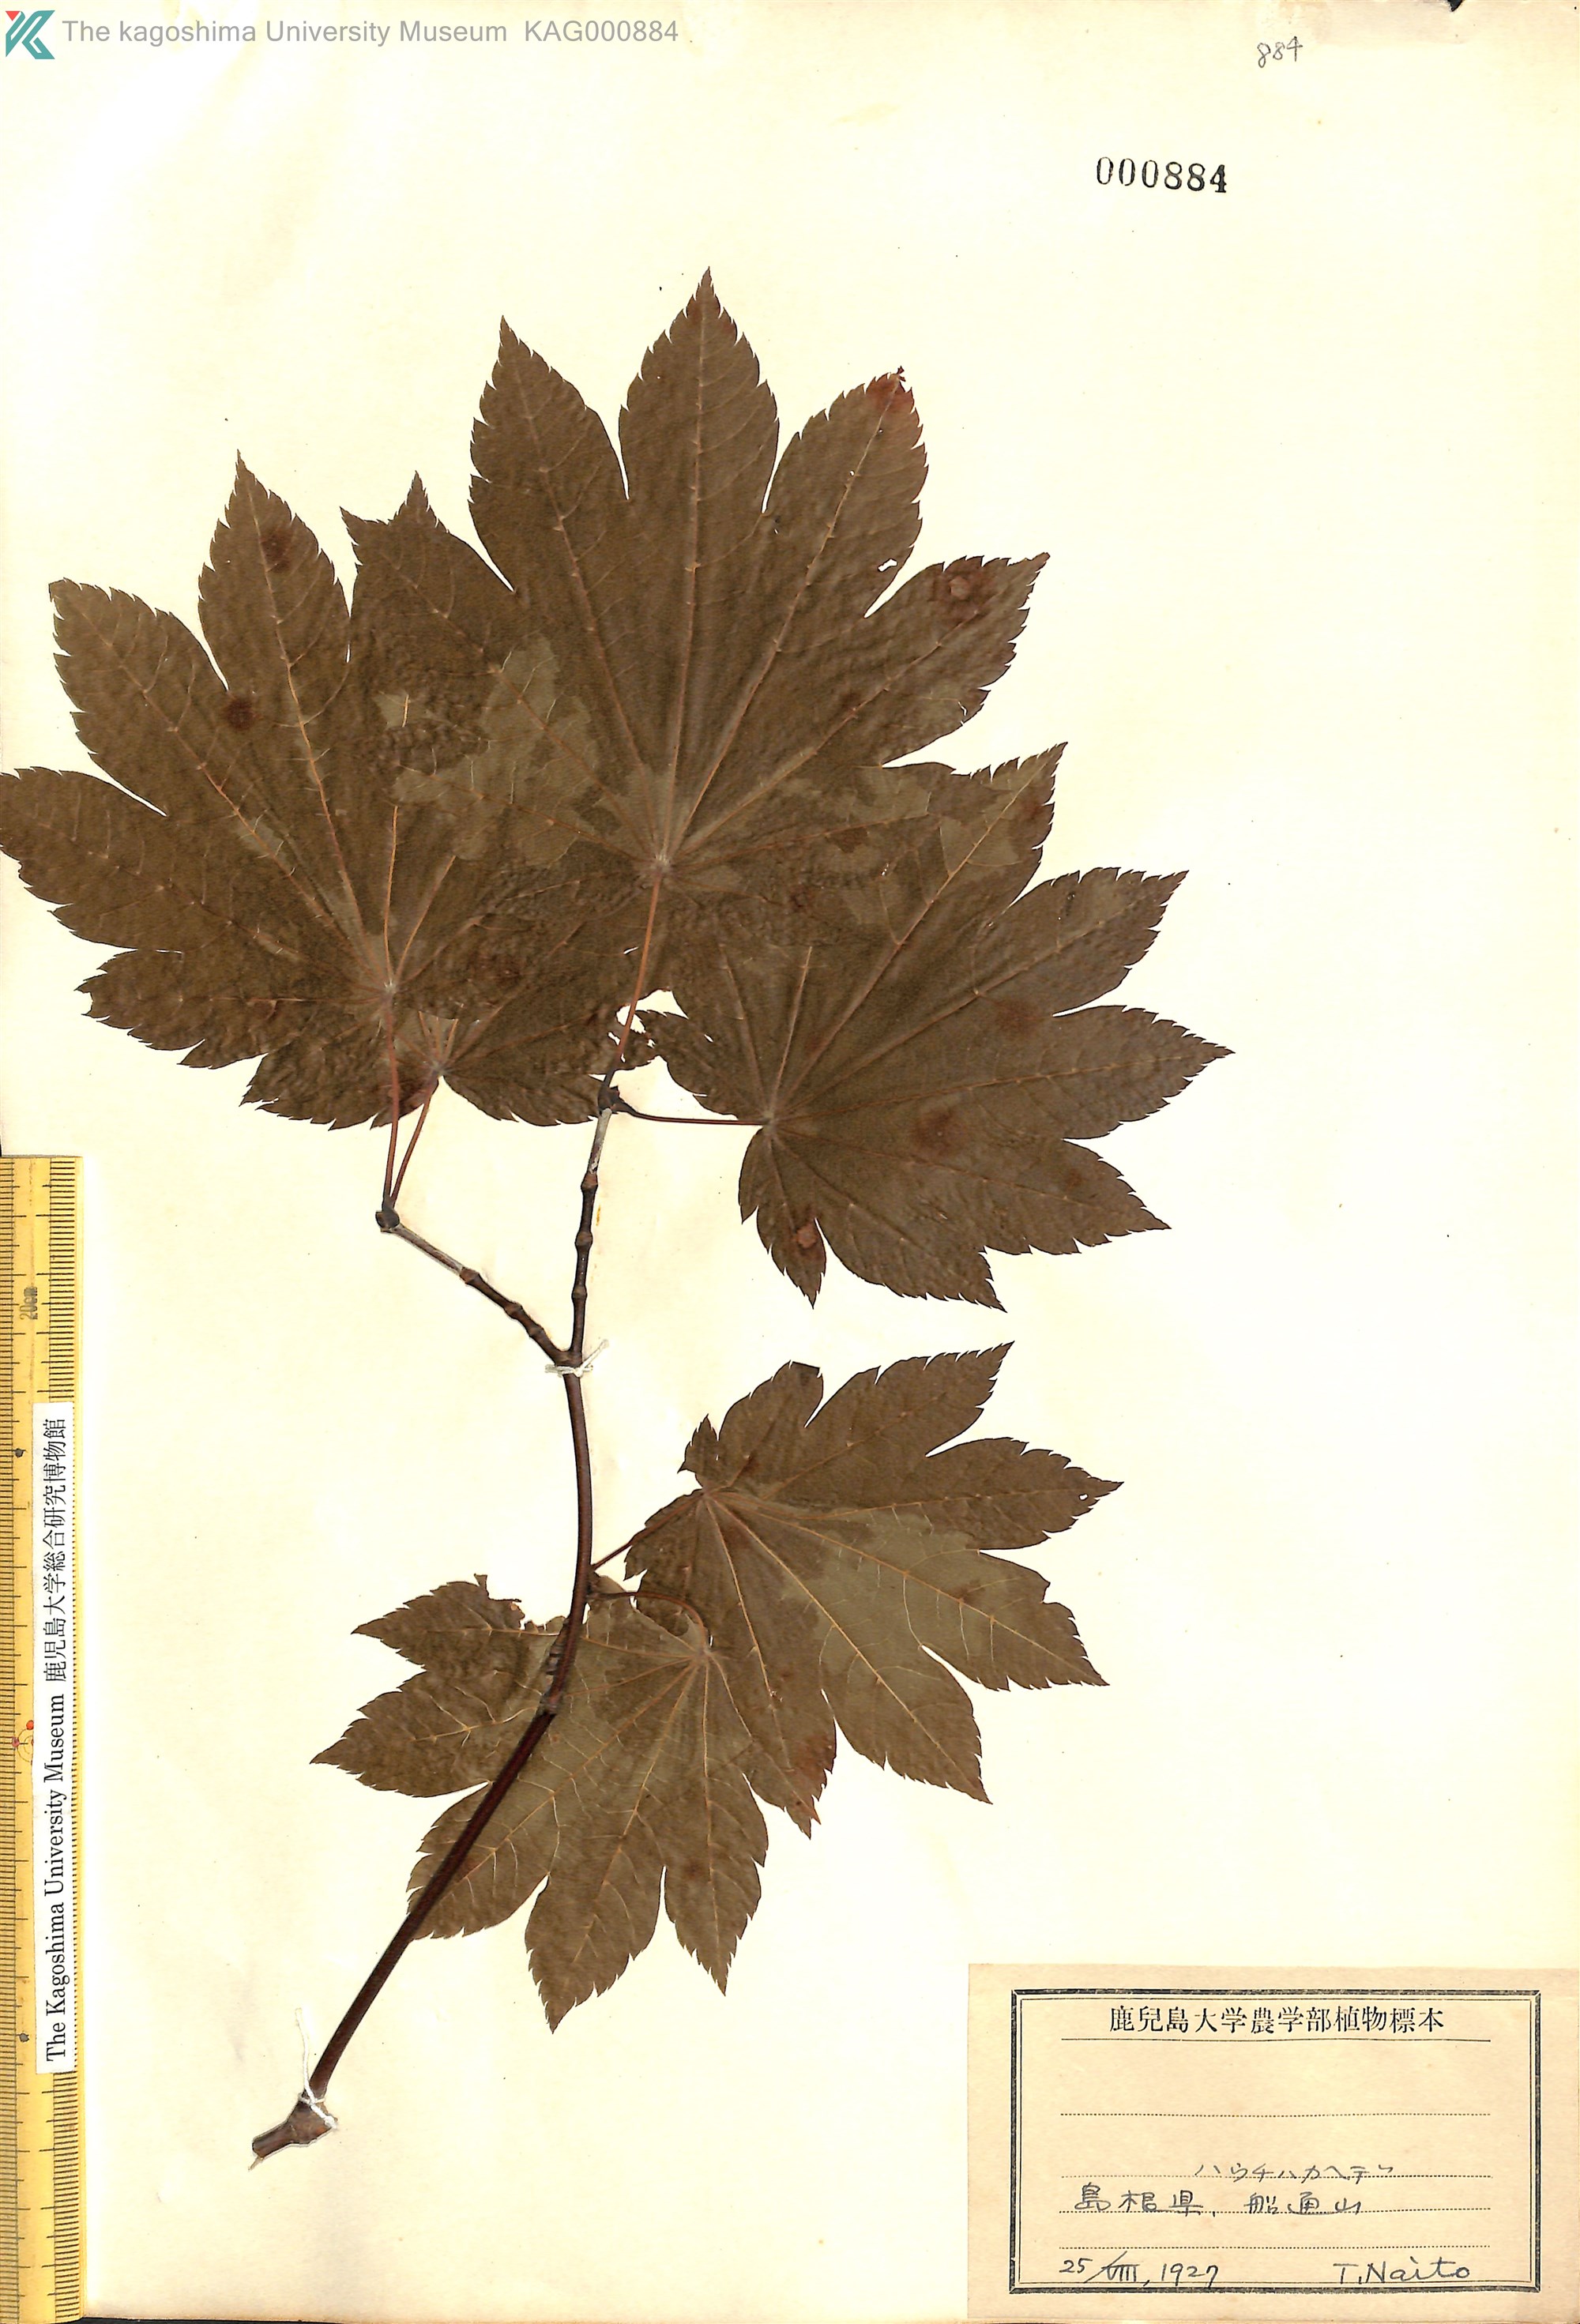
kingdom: Plantae
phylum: Tracheophyta
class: Magnoliopsida
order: Sapindales
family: Sapindaceae
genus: Acer
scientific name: Acer caudatifolium
